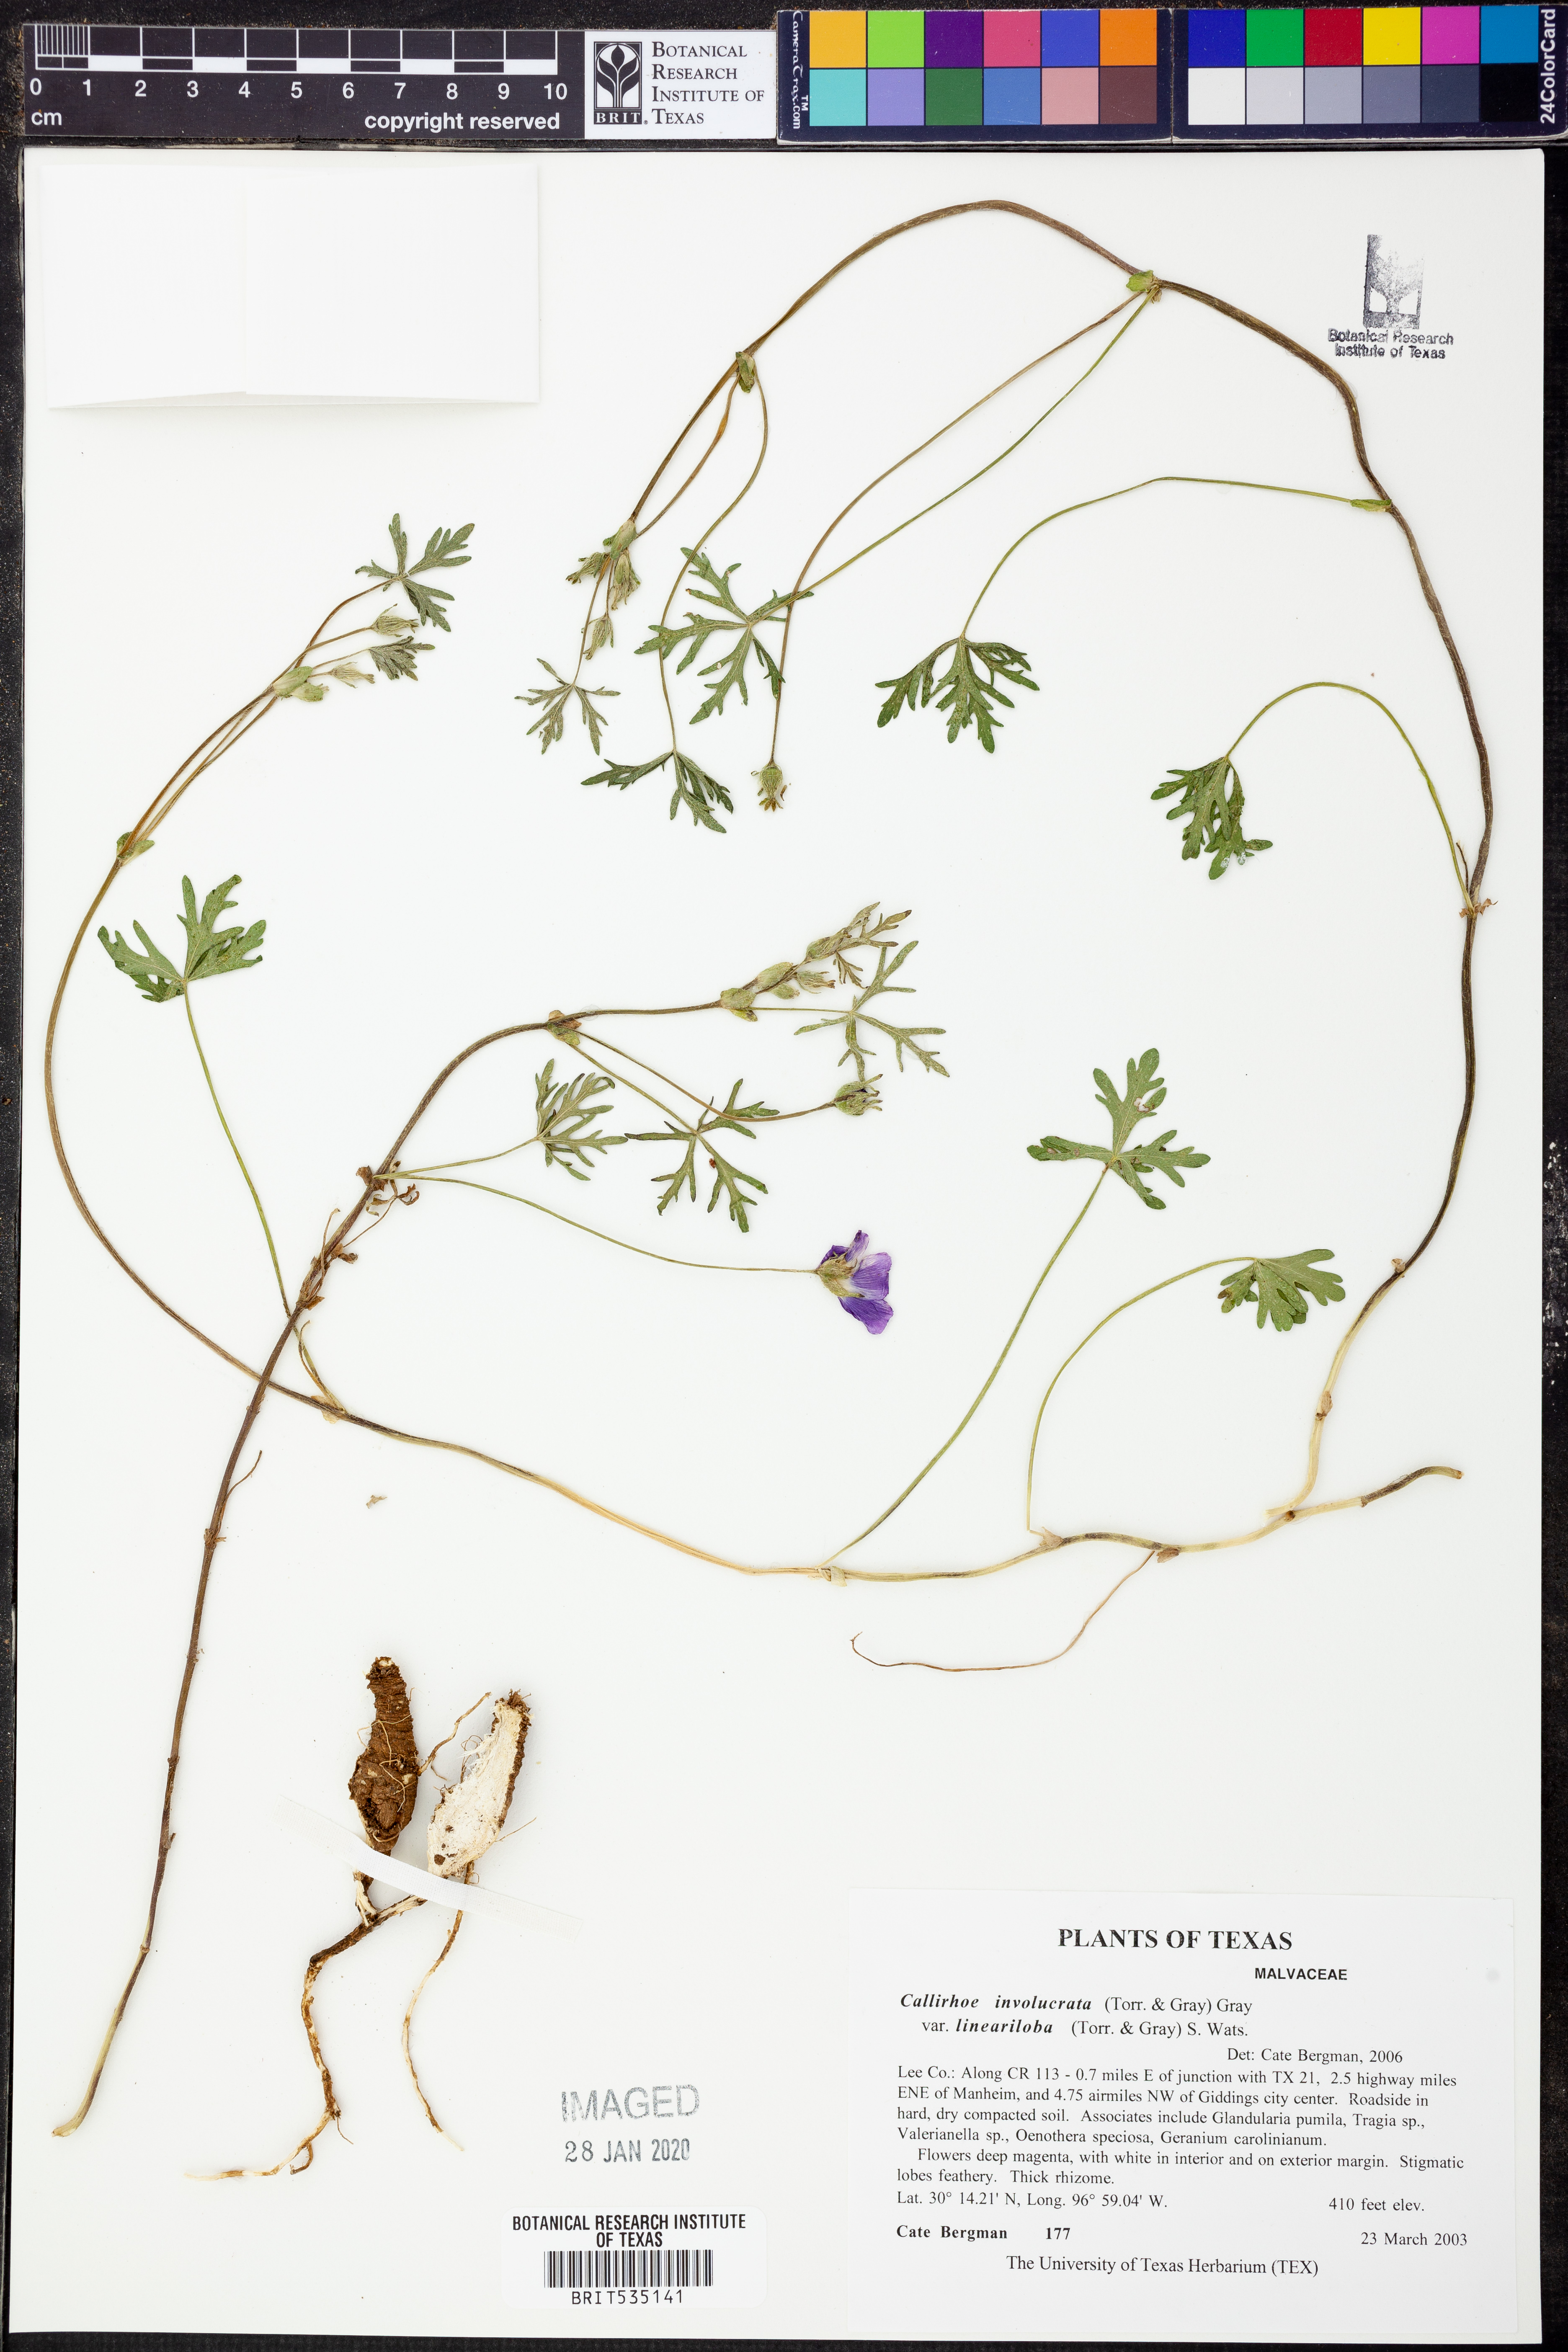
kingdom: Plantae
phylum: Tracheophyta
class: Magnoliopsida
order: Malvales
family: Malvaceae
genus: Callirhoe
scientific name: Callirhoe involucrata
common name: Purple poppy-mallow
